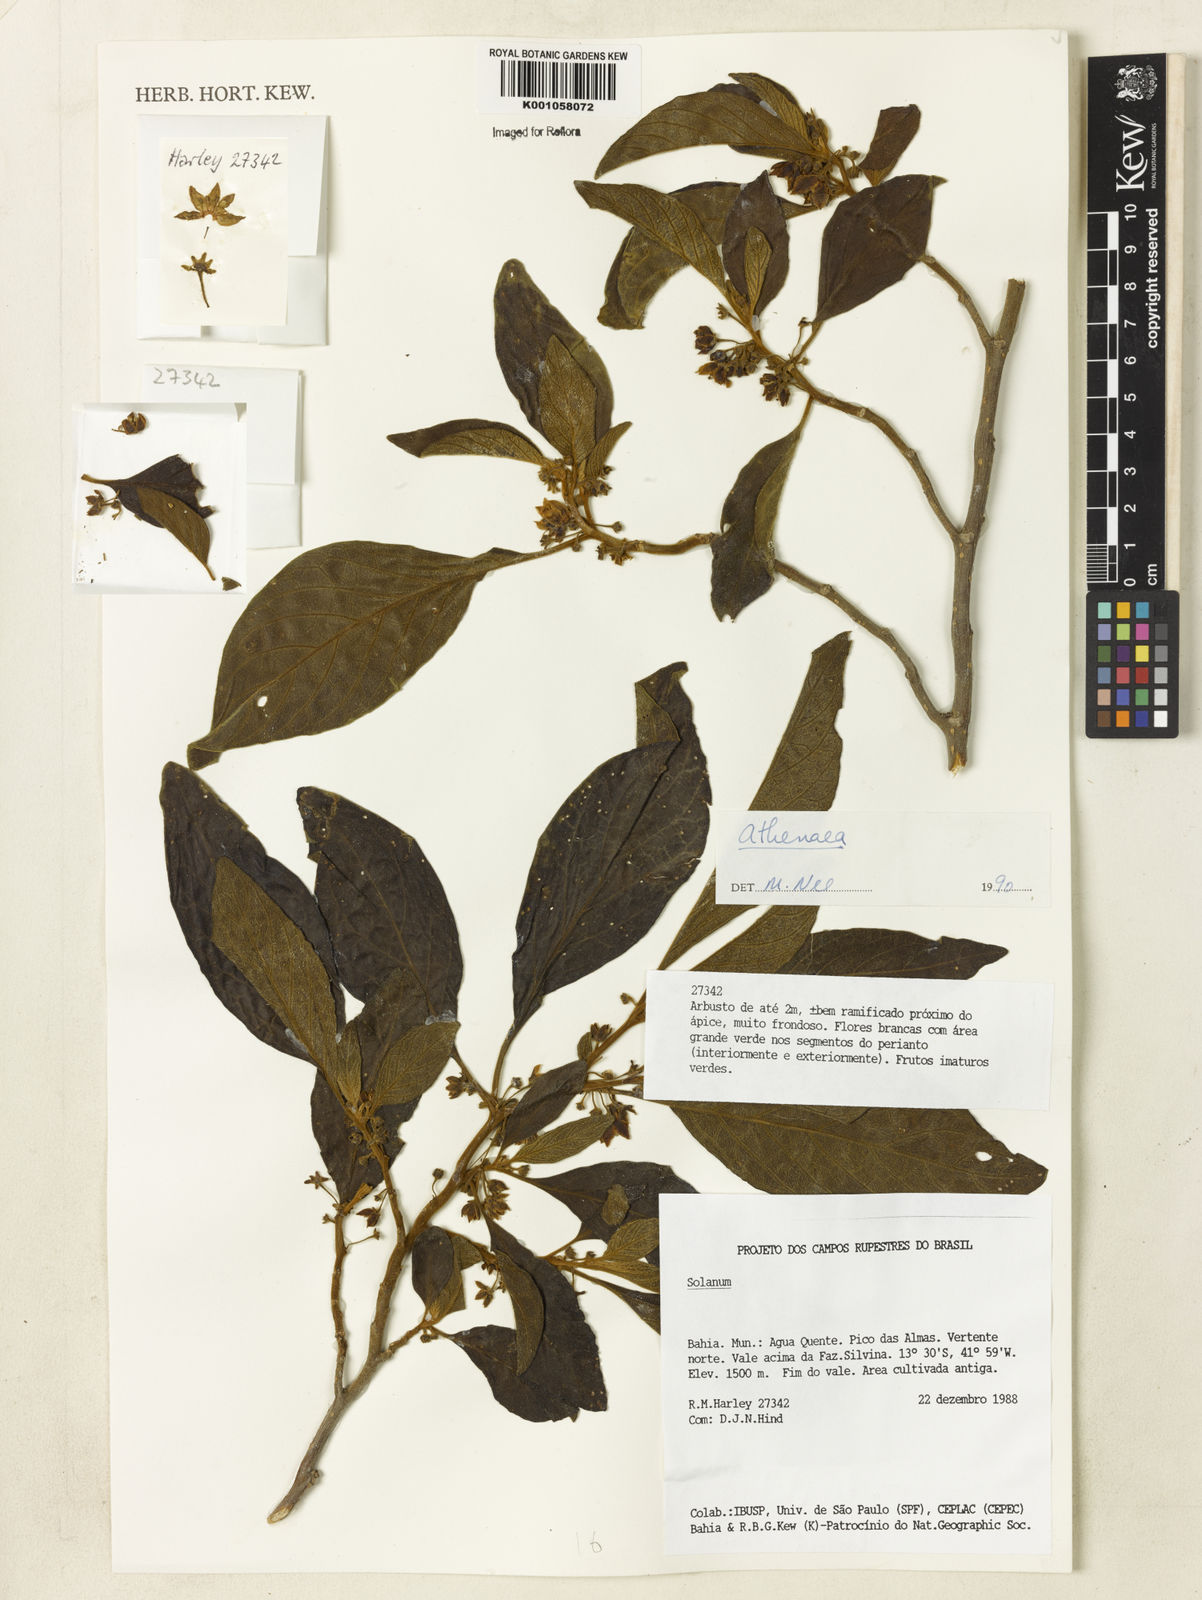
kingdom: Plantae
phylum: Tracheophyta
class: Magnoliopsida
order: Solanales
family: Solanaceae
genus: Solanum
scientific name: Solanum
